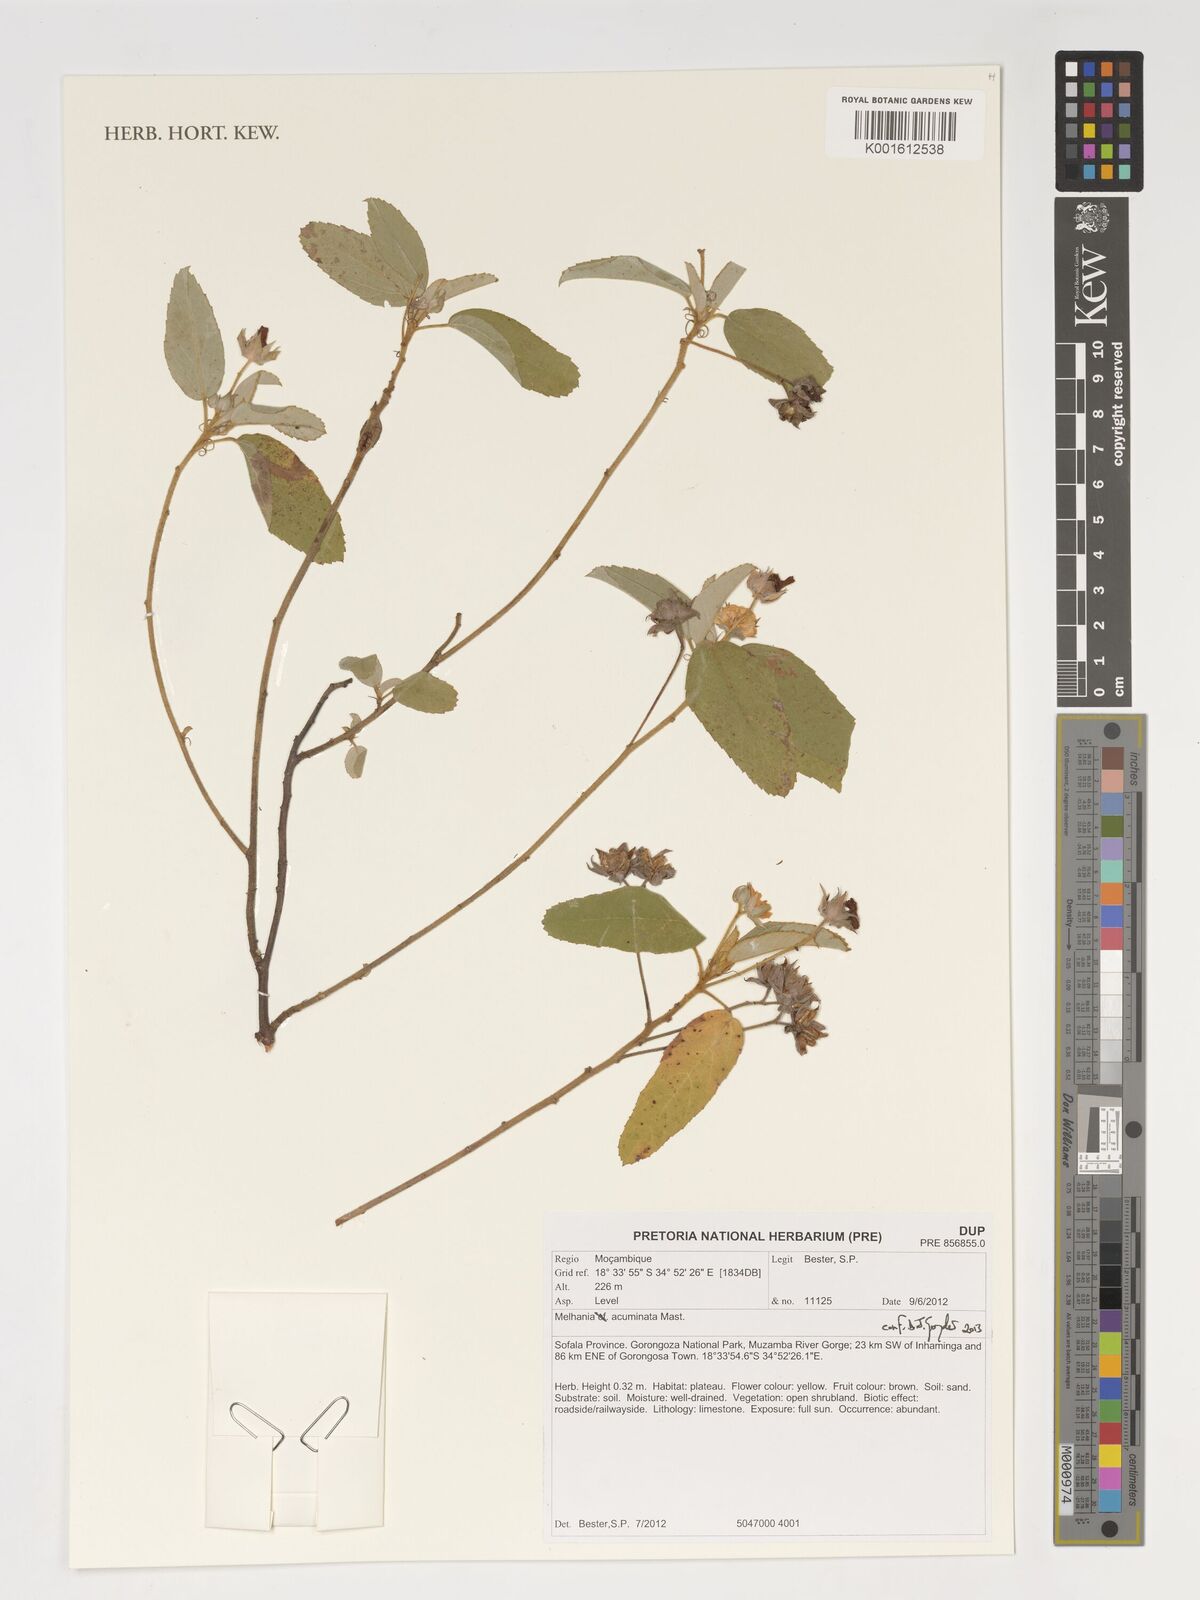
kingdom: Plantae
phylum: Tracheophyta
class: Magnoliopsida
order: Malvales
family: Malvaceae
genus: Melhania
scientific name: Melhania acuminata
